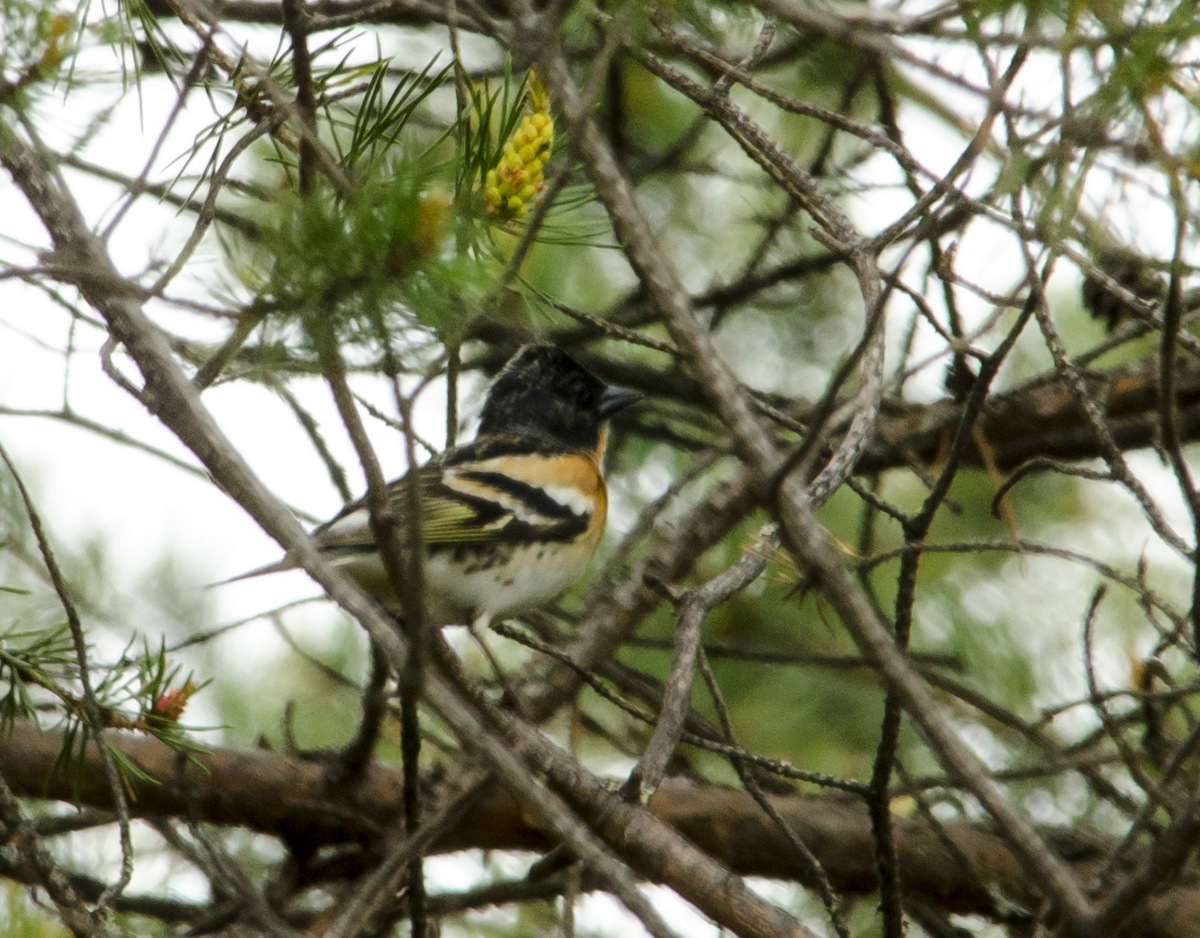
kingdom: Animalia
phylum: Chordata
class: Aves
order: Passeriformes
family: Fringillidae
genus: Fringilla
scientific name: Fringilla montifringilla
